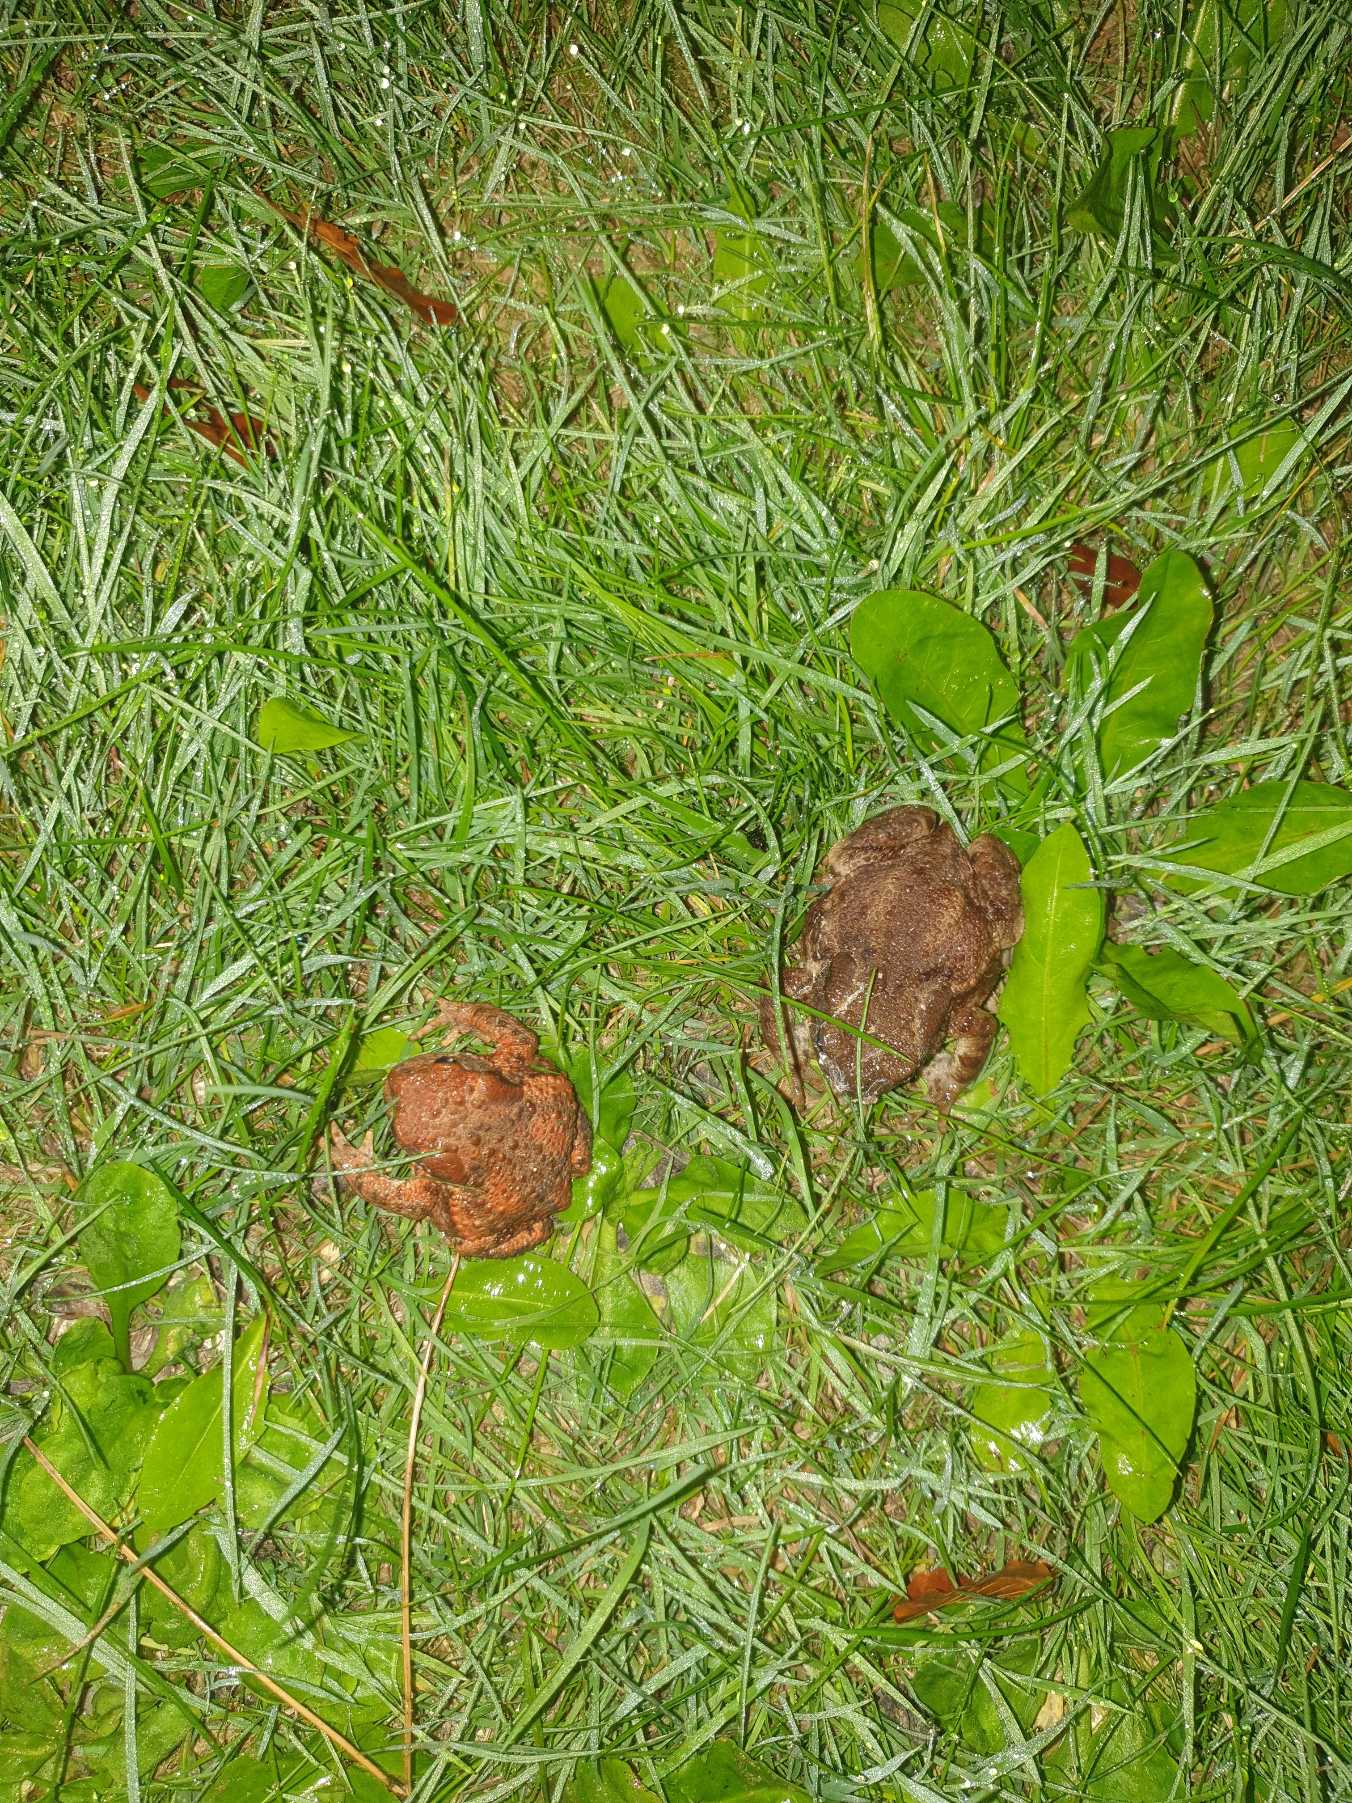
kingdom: Animalia
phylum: Chordata
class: Amphibia
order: Anura
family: Bufonidae
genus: Bufo
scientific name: Bufo bufo
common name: Skrubtudse
